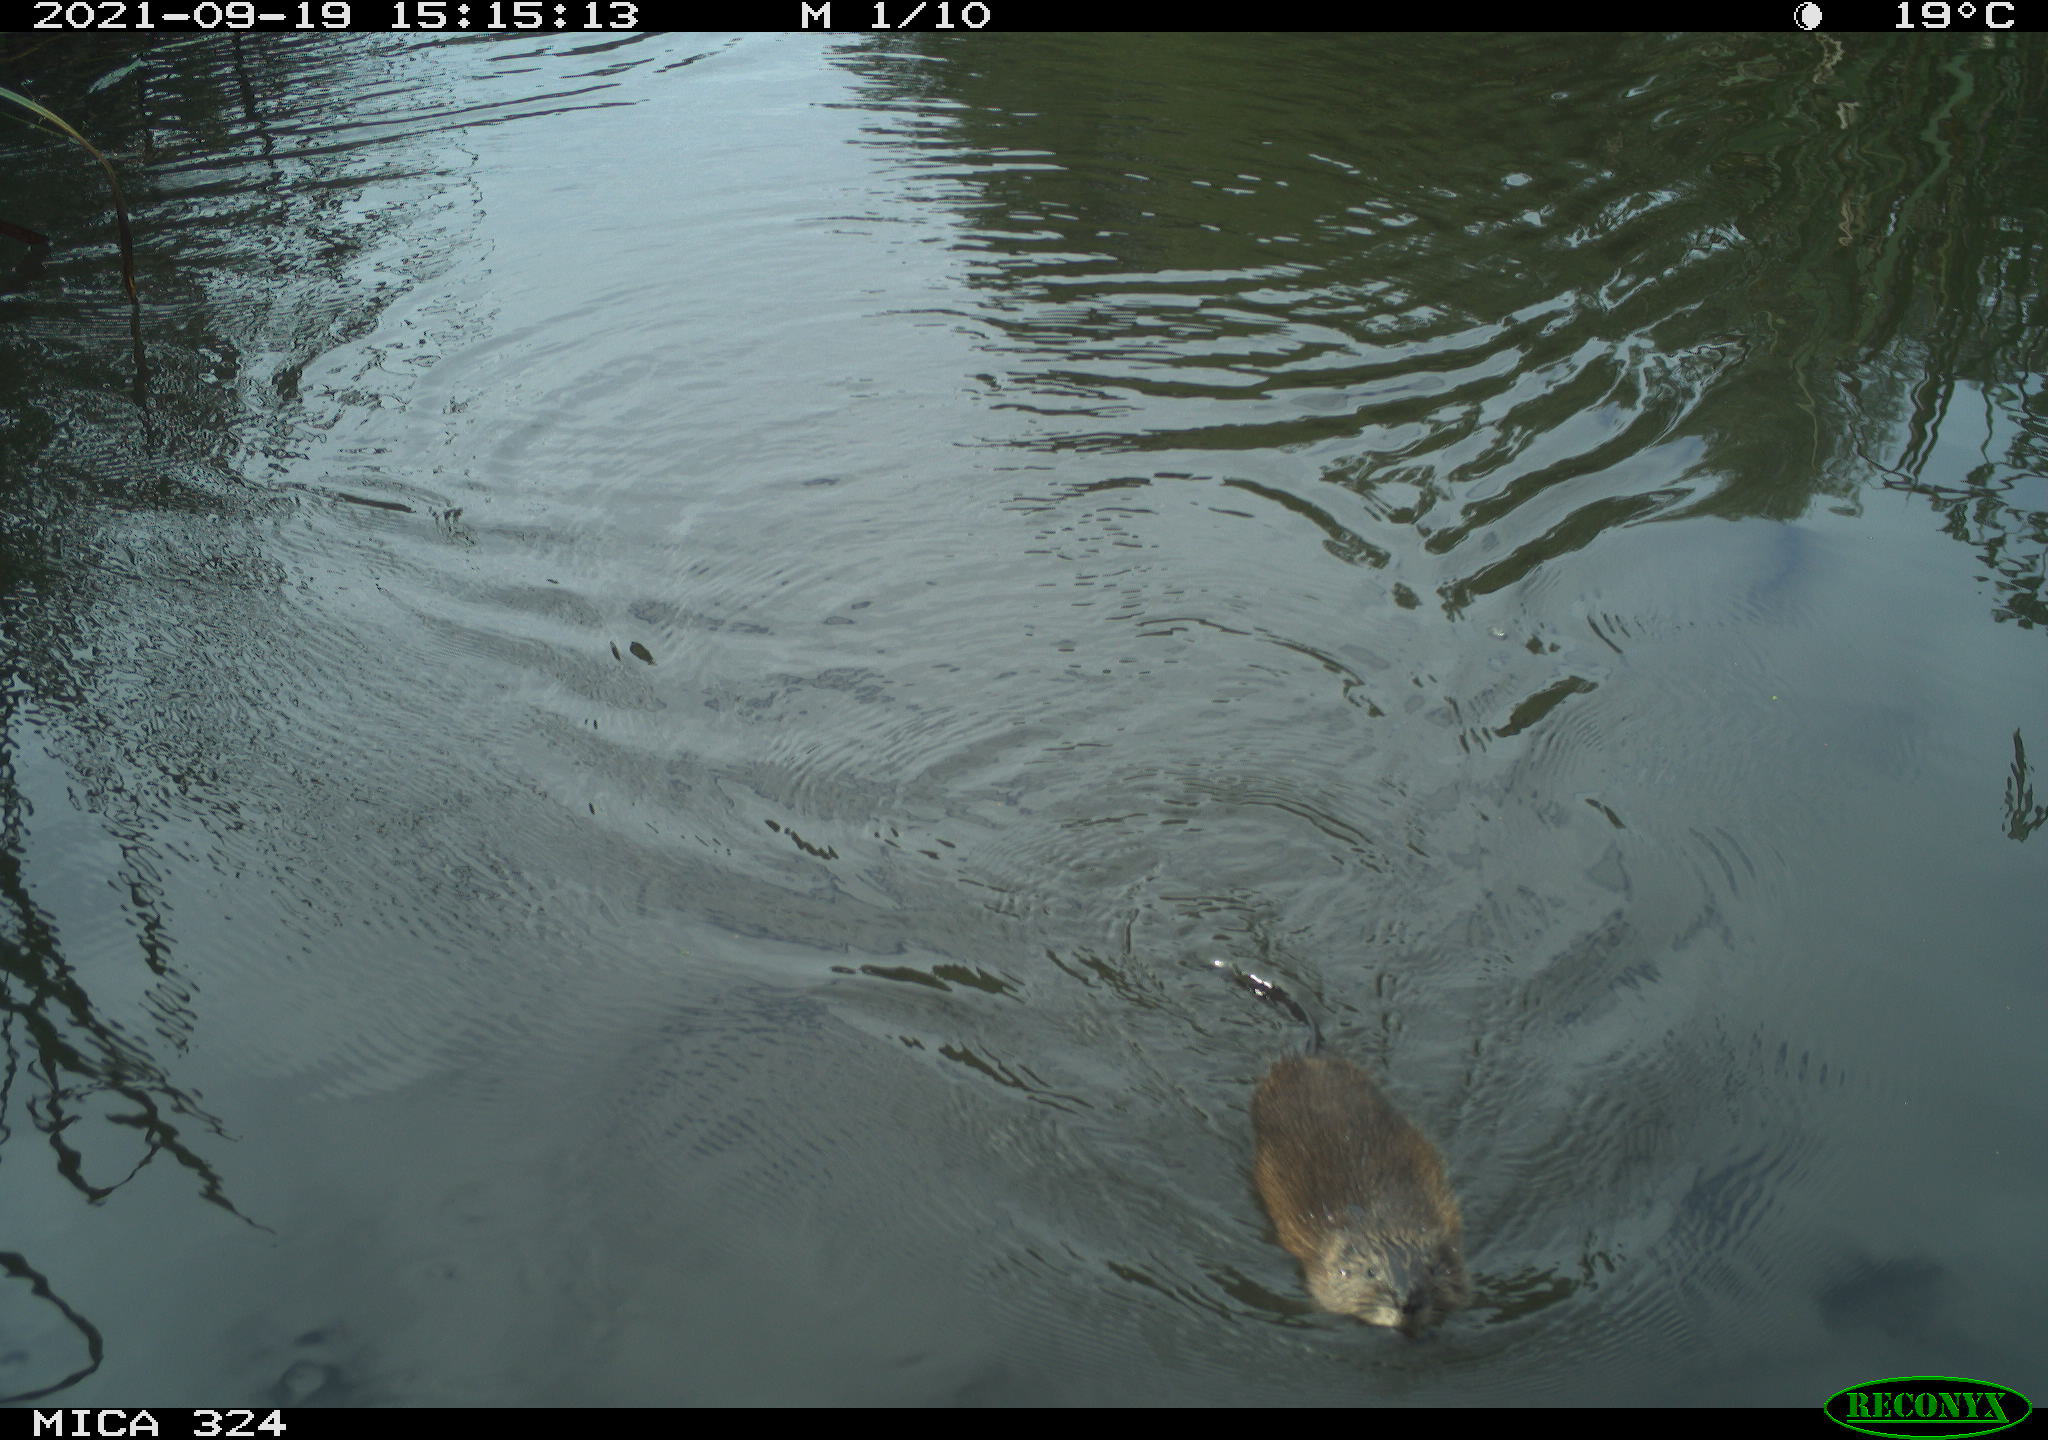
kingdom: Animalia
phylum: Chordata
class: Mammalia
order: Rodentia
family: Cricetidae
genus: Ondatra
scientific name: Ondatra zibethicus
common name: Muskrat
